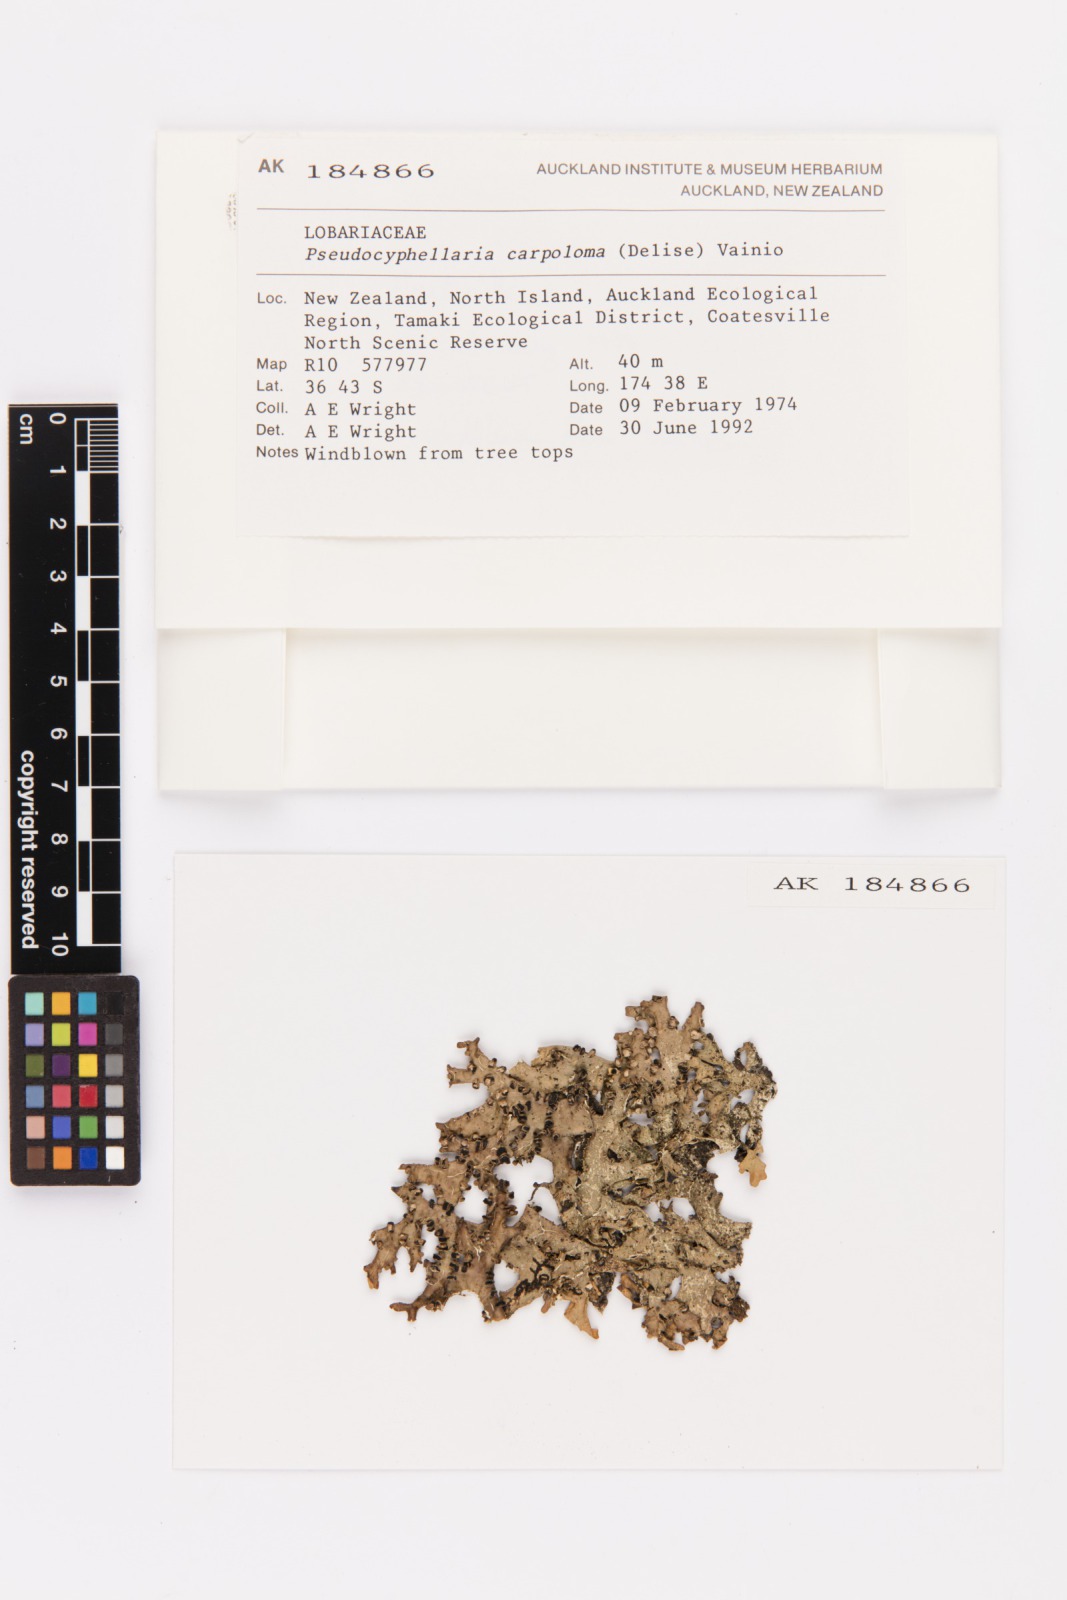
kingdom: Fungi
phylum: Ascomycota
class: Lecanoromycetes
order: Peltigerales
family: Lobariaceae
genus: Pseudocyphellaria
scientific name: Pseudocyphellaria carpoloma
